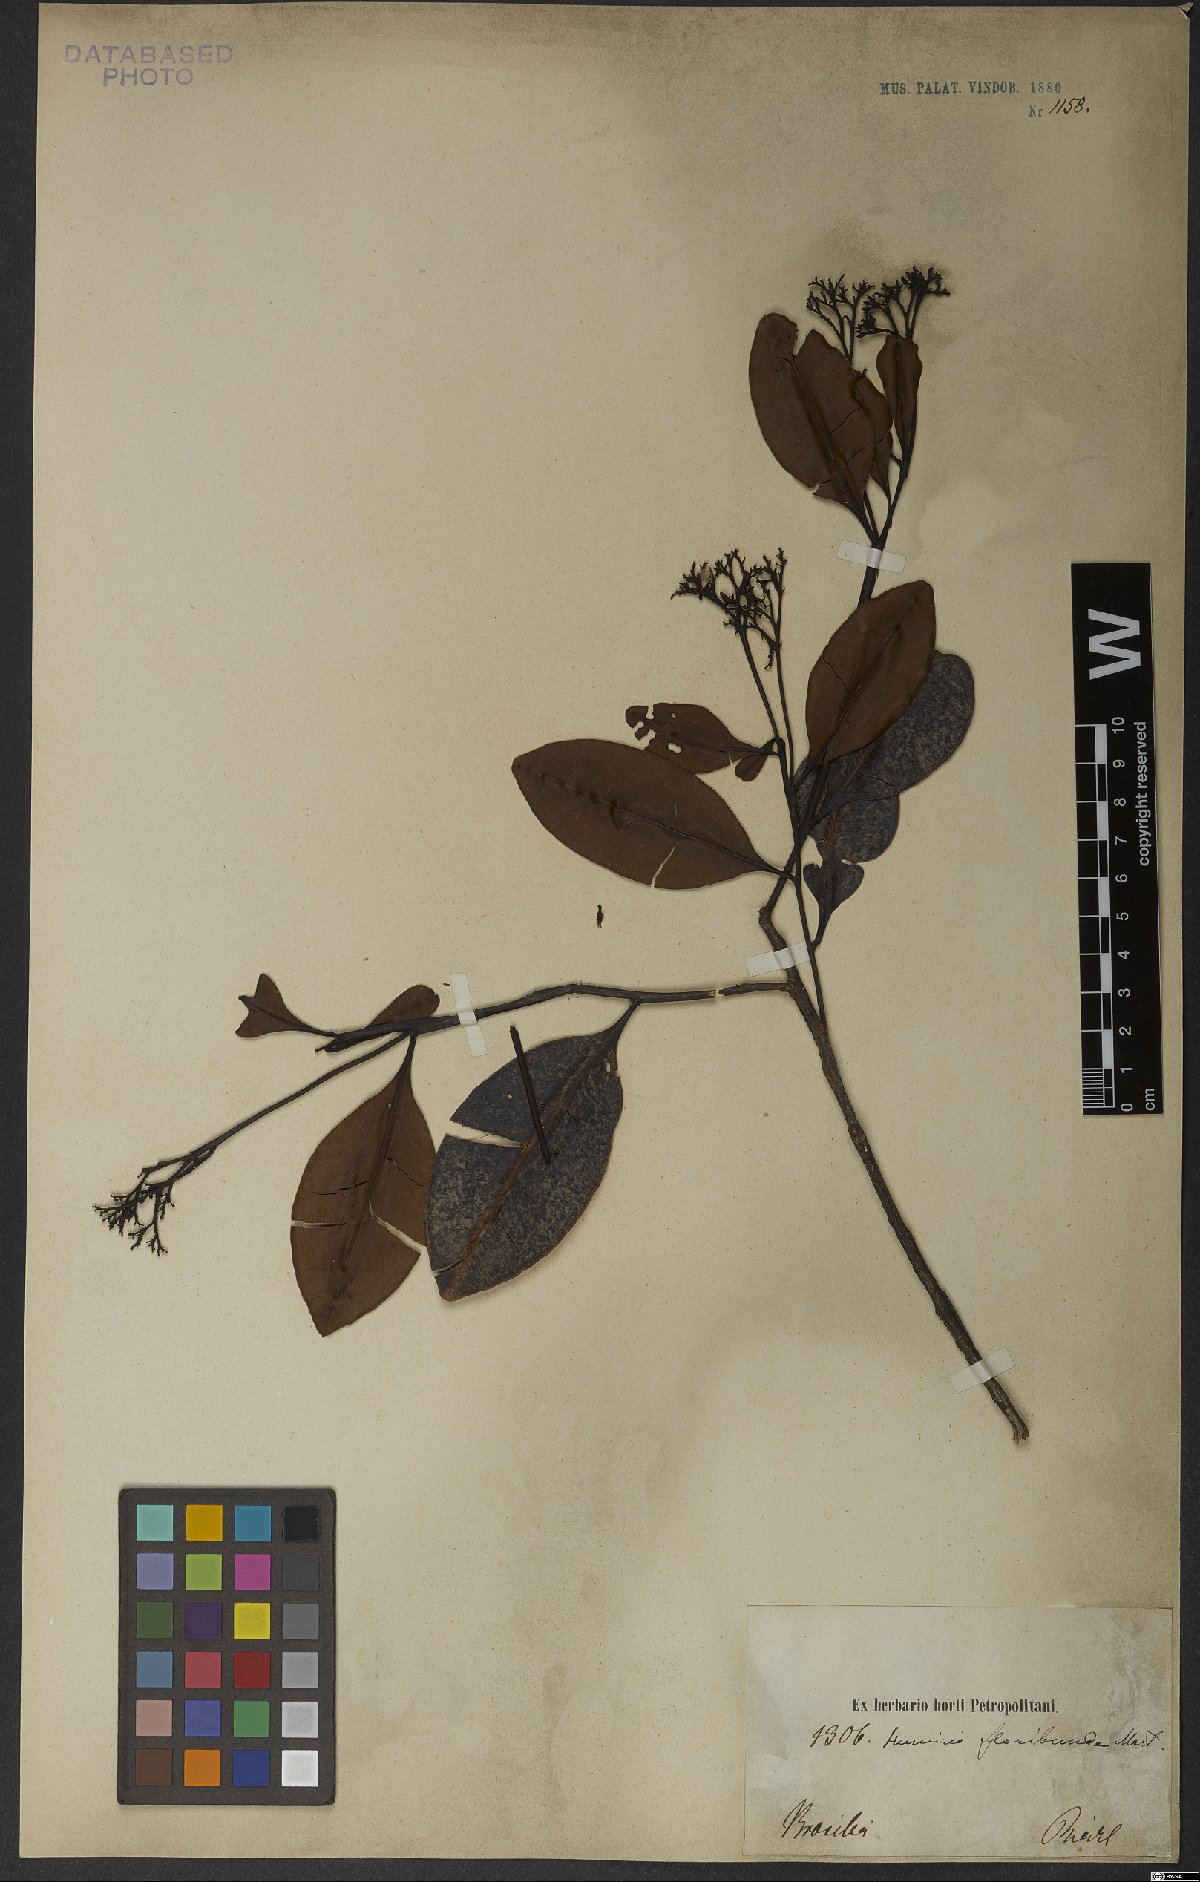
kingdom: Plantae
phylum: Tracheophyta
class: Magnoliopsida
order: Malpighiales
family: Humiriaceae
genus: Humiria
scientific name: Humiria balsamifera
